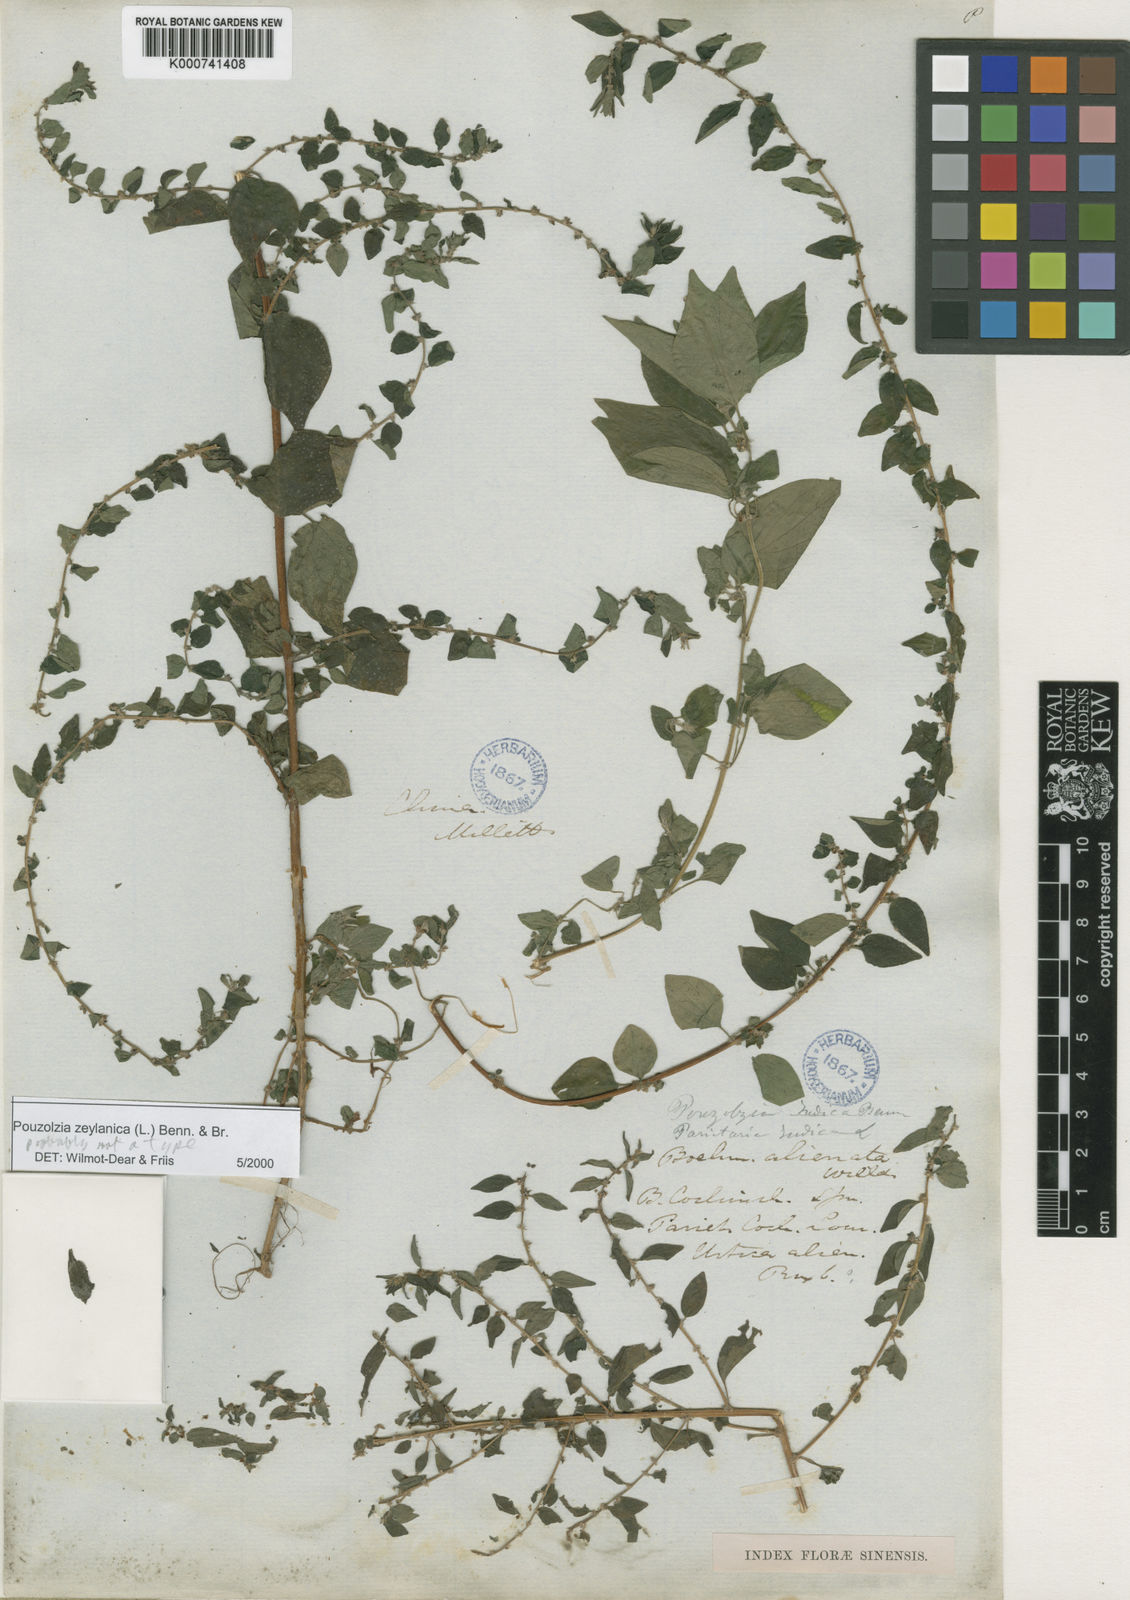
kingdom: Plantae
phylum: Tracheophyta
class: Magnoliopsida
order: Rosales
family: Urticaceae
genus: Pouzolzia
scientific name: Pouzolzia zeylanica
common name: Graceful pouzolzsbush
